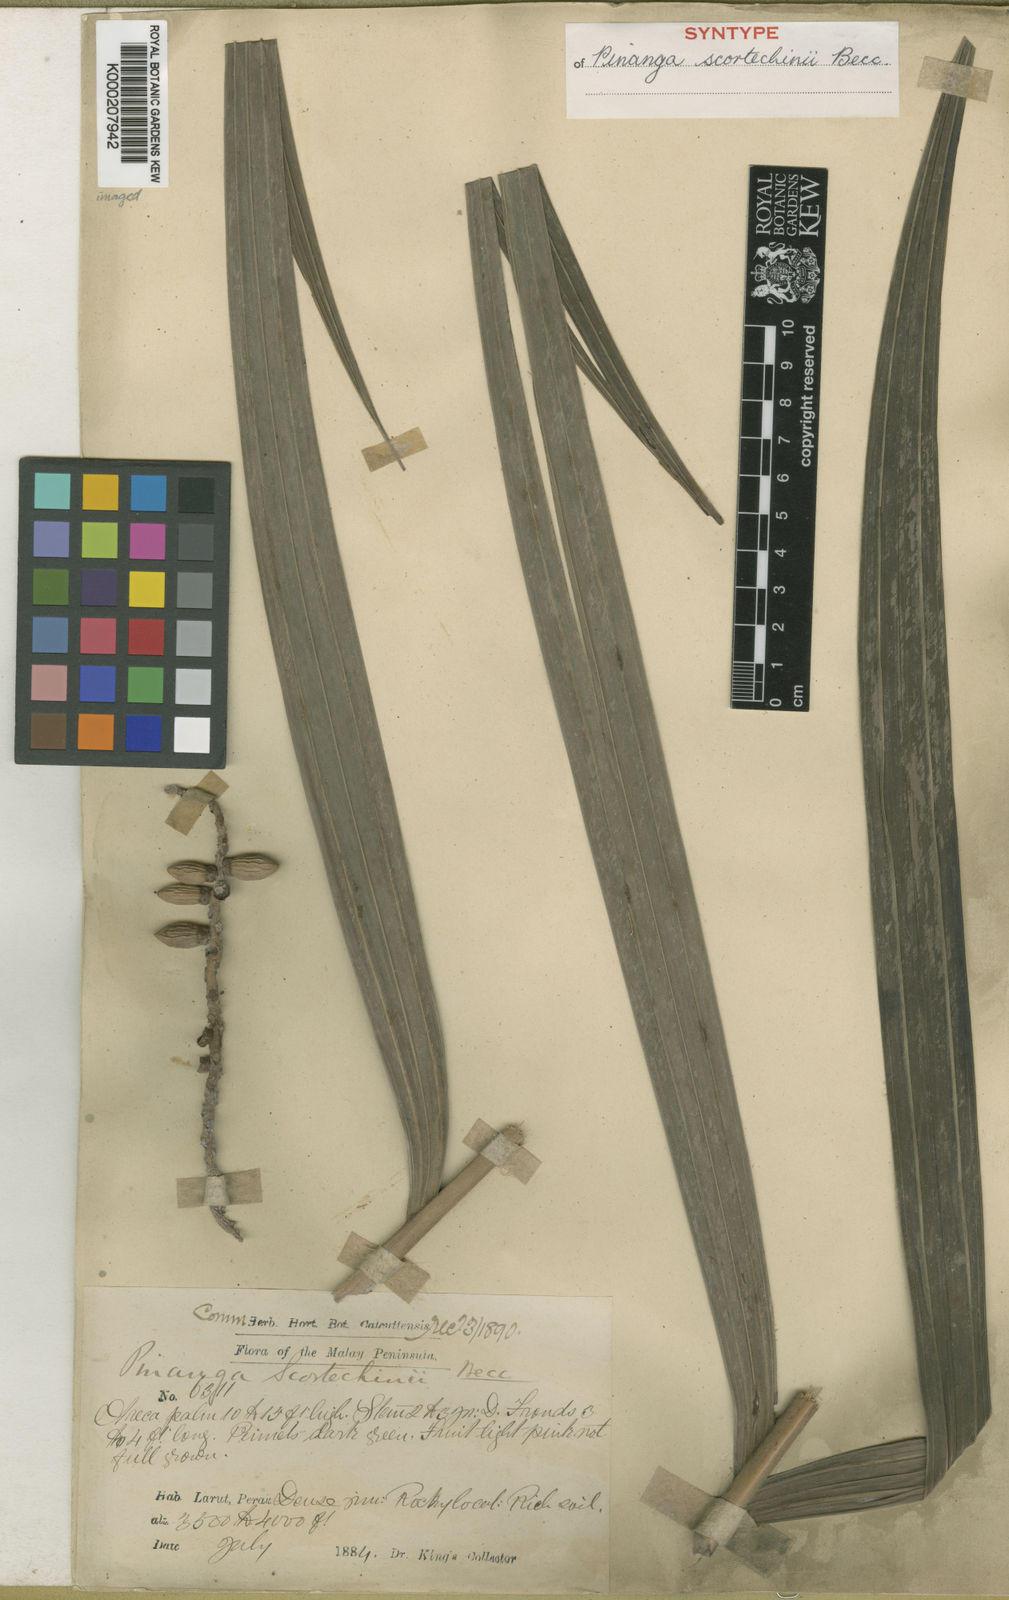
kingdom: Plantae
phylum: Tracheophyta
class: Liliopsida
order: Arecales
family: Arecaceae
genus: Pinanga
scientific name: Pinanga scortechinii
